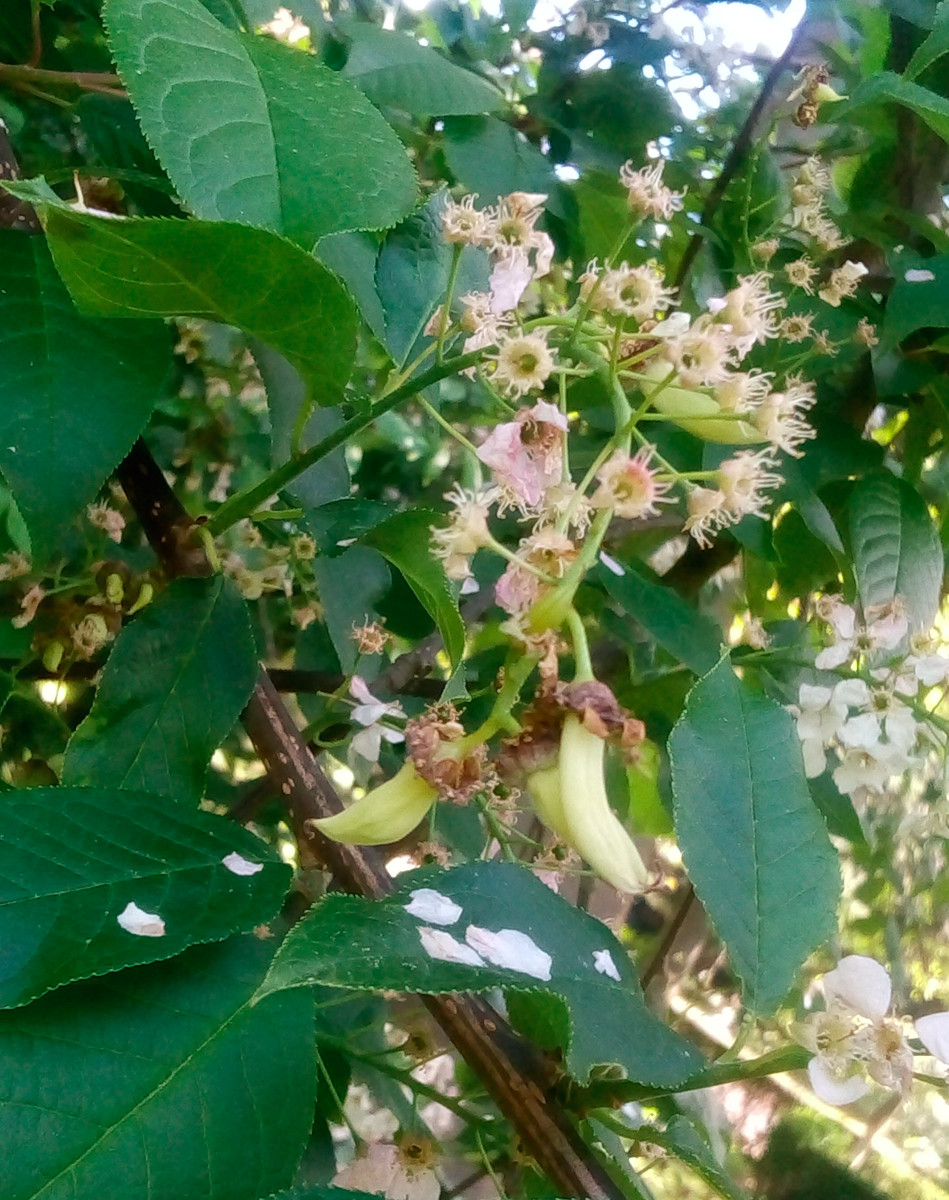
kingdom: Fungi
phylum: Ascomycota
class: Taphrinomycetes
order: Taphrinales
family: Taphrinaceae
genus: Taphrina
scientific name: Taphrina padi
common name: Bird cherry pocket
